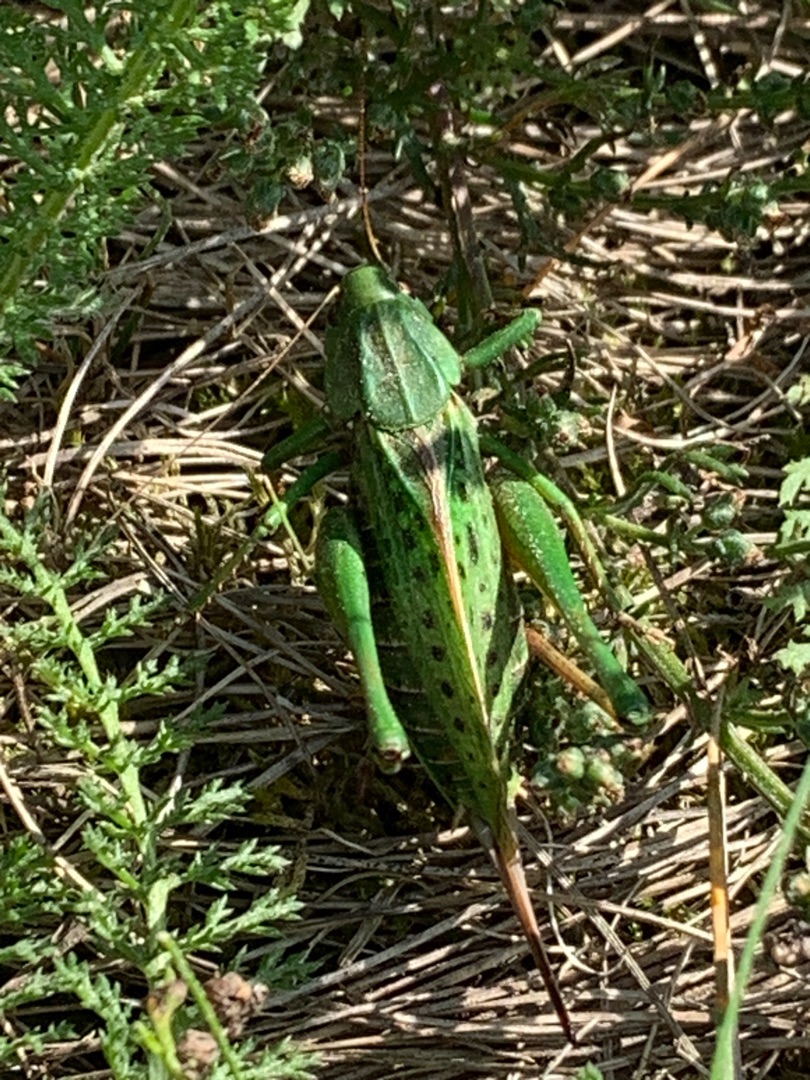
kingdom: Animalia
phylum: Arthropoda
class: Insecta
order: Orthoptera
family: Tettigoniidae
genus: Decticus
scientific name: Decticus verrucivorus
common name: Vortebider
